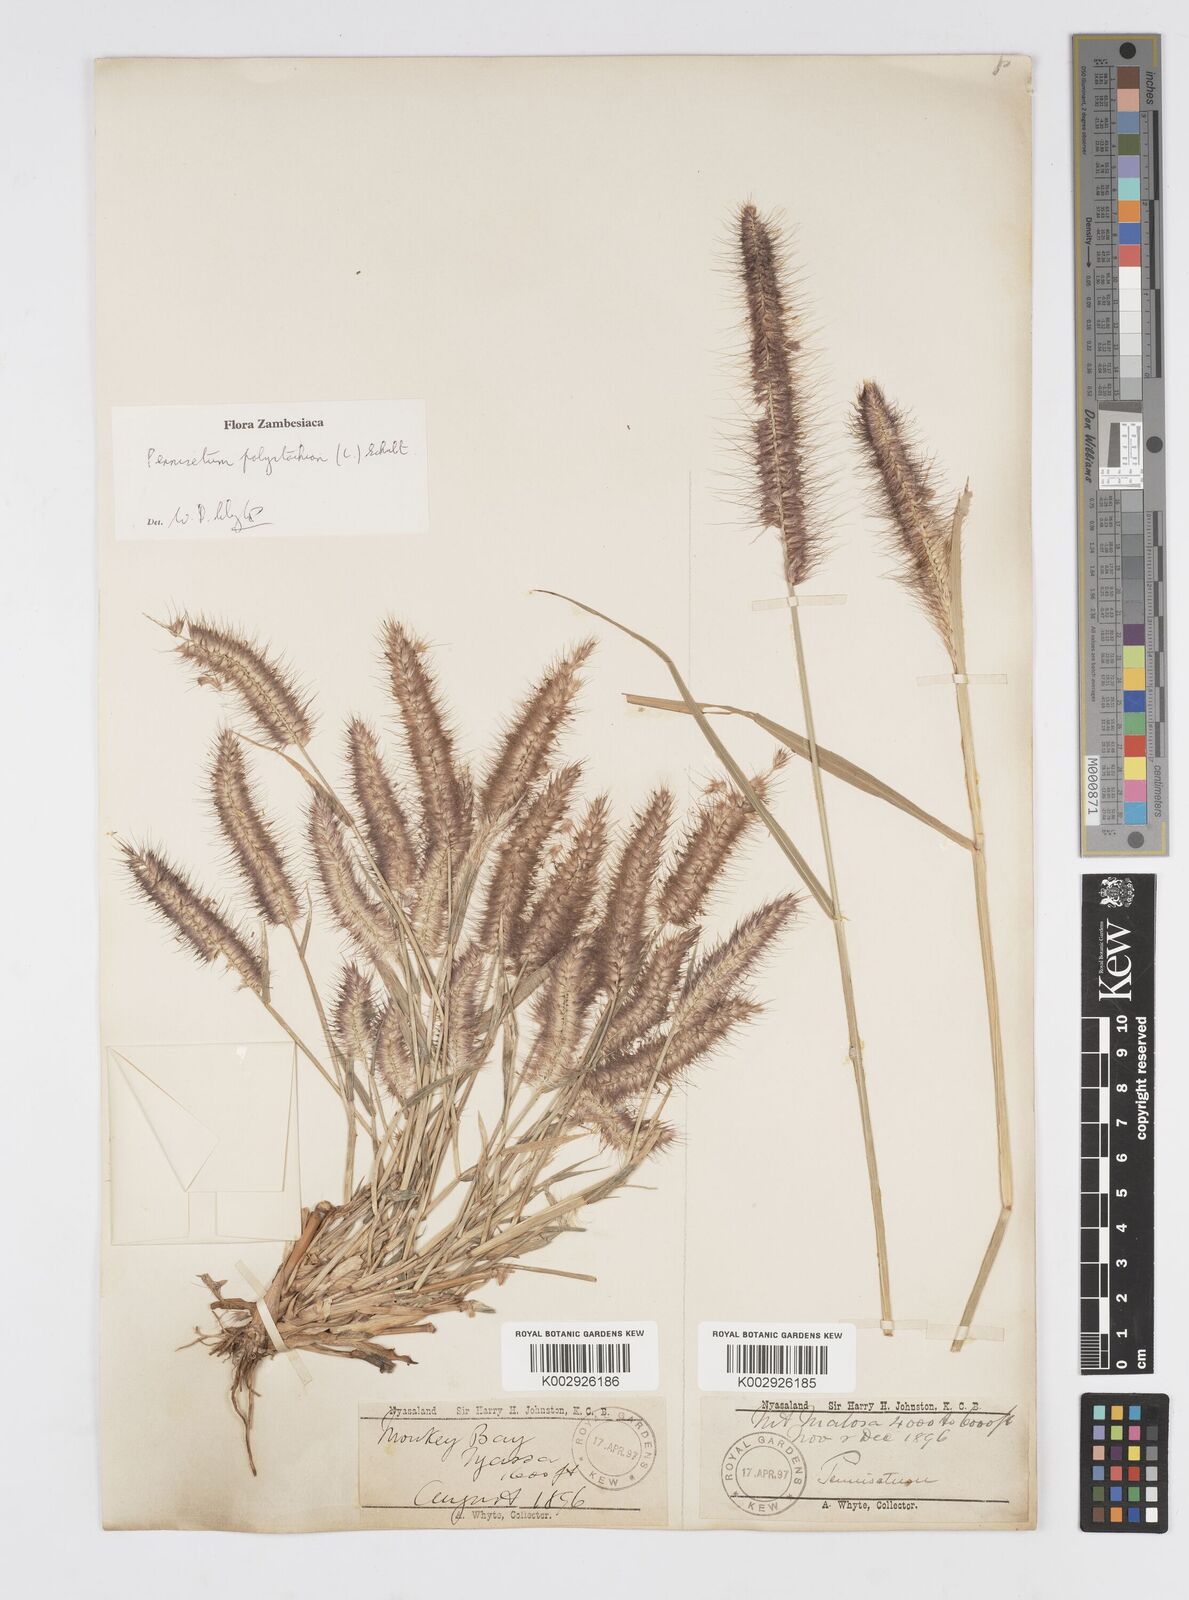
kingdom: Plantae
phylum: Tracheophyta
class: Liliopsida
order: Poales
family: Poaceae
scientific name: Poaceae
